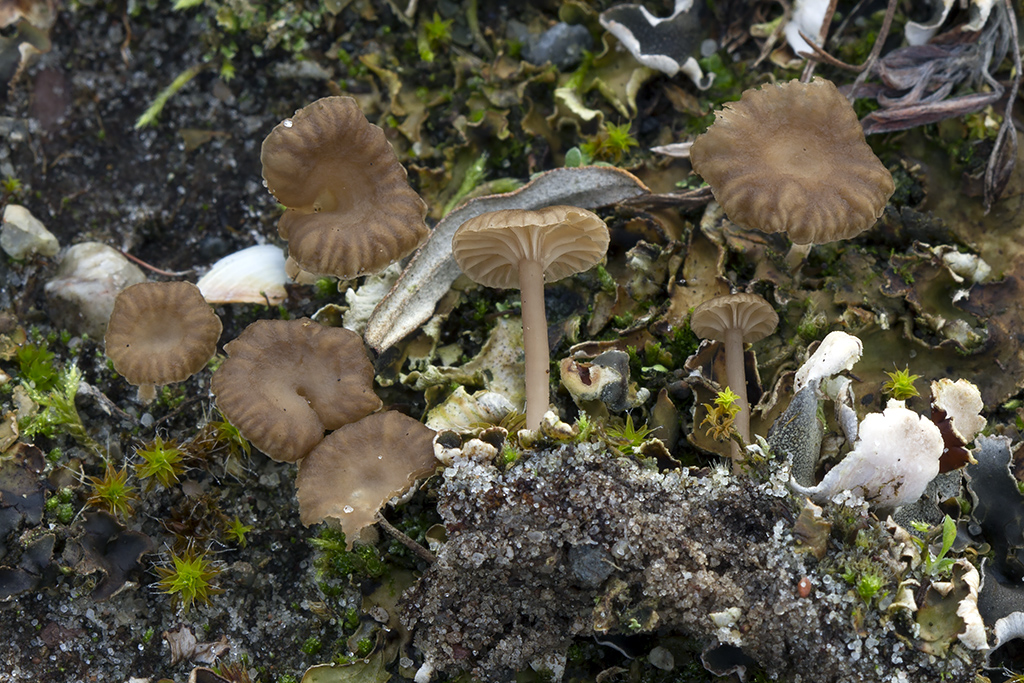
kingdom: Fungi
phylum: Basidiomycota
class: Agaricomycetes
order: Agaricales
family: Hygrophoraceae
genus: Arrhenia
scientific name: Arrhenia peltigerina
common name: skjoldlav-fontænehat
